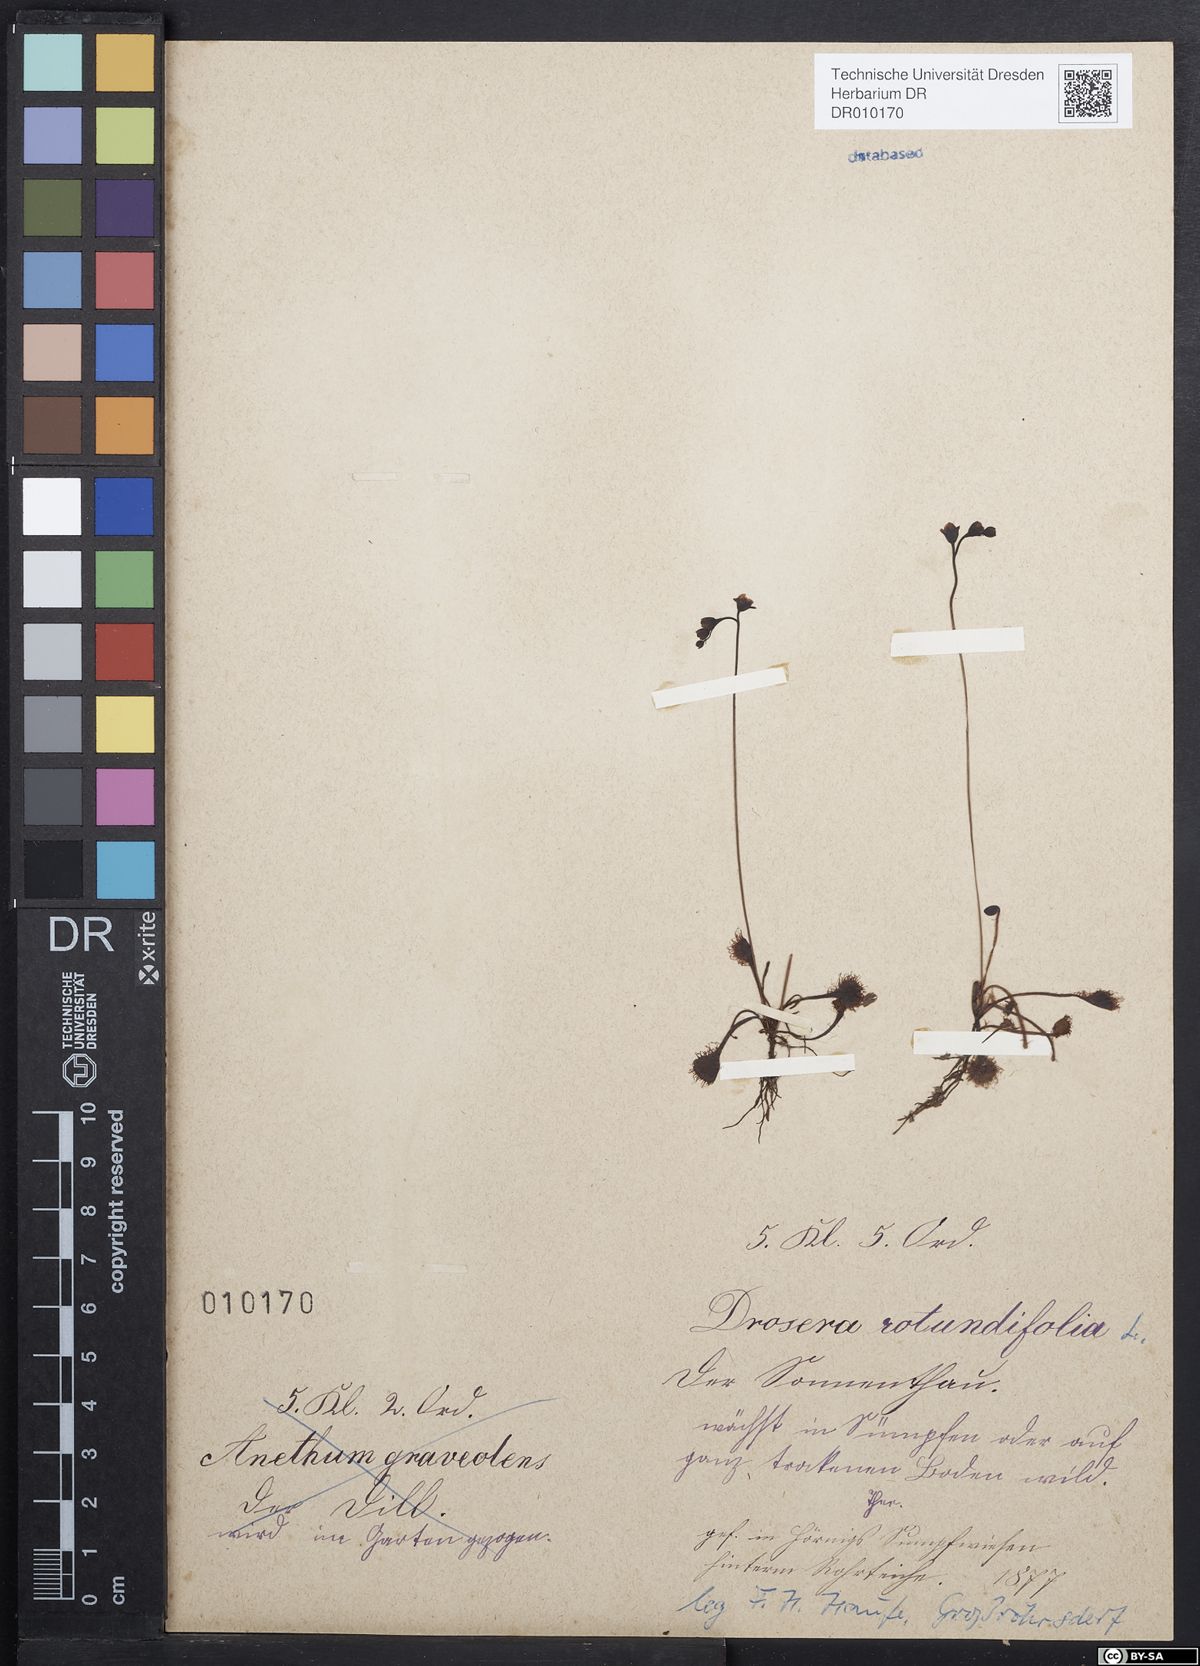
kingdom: Plantae
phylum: Tracheophyta
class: Magnoliopsida
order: Caryophyllales
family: Droseraceae
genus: Drosera
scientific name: Drosera rotundifolia
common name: Round-leaved sundew
